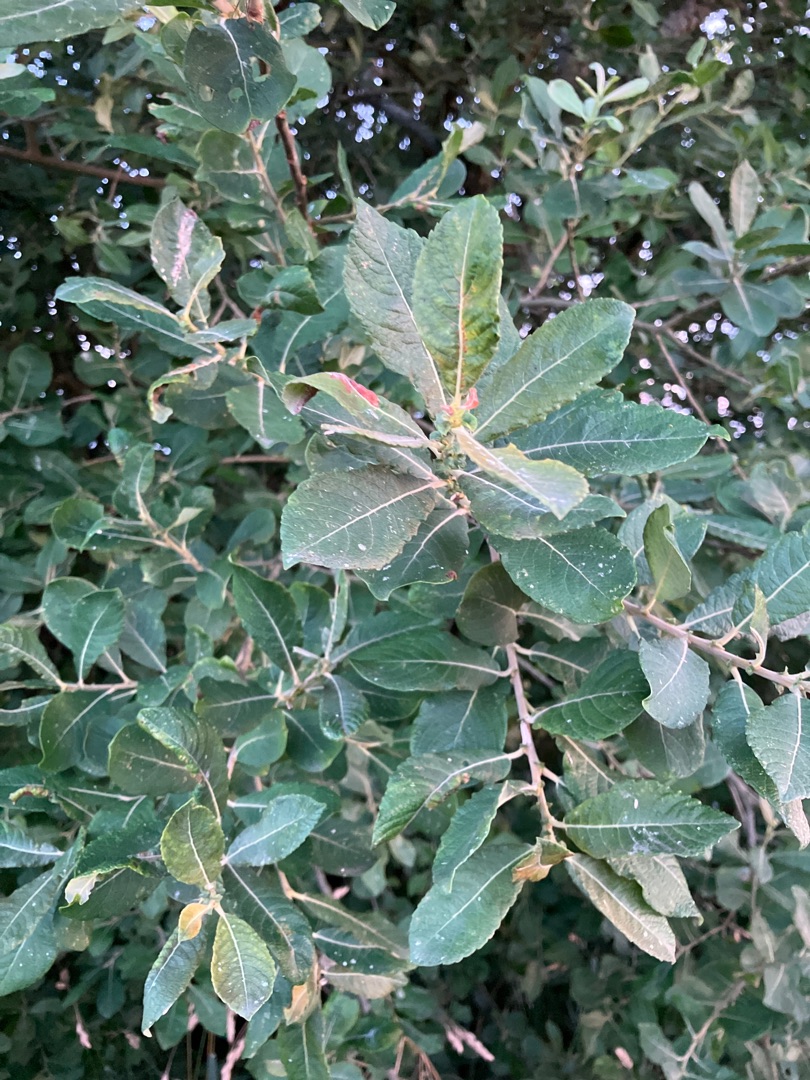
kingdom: Plantae
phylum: Tracheophyta
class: Magnoliopsida
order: Malpighiales
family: Salicaceae
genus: Salix
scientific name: Salix cinerea
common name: Grå-pil
